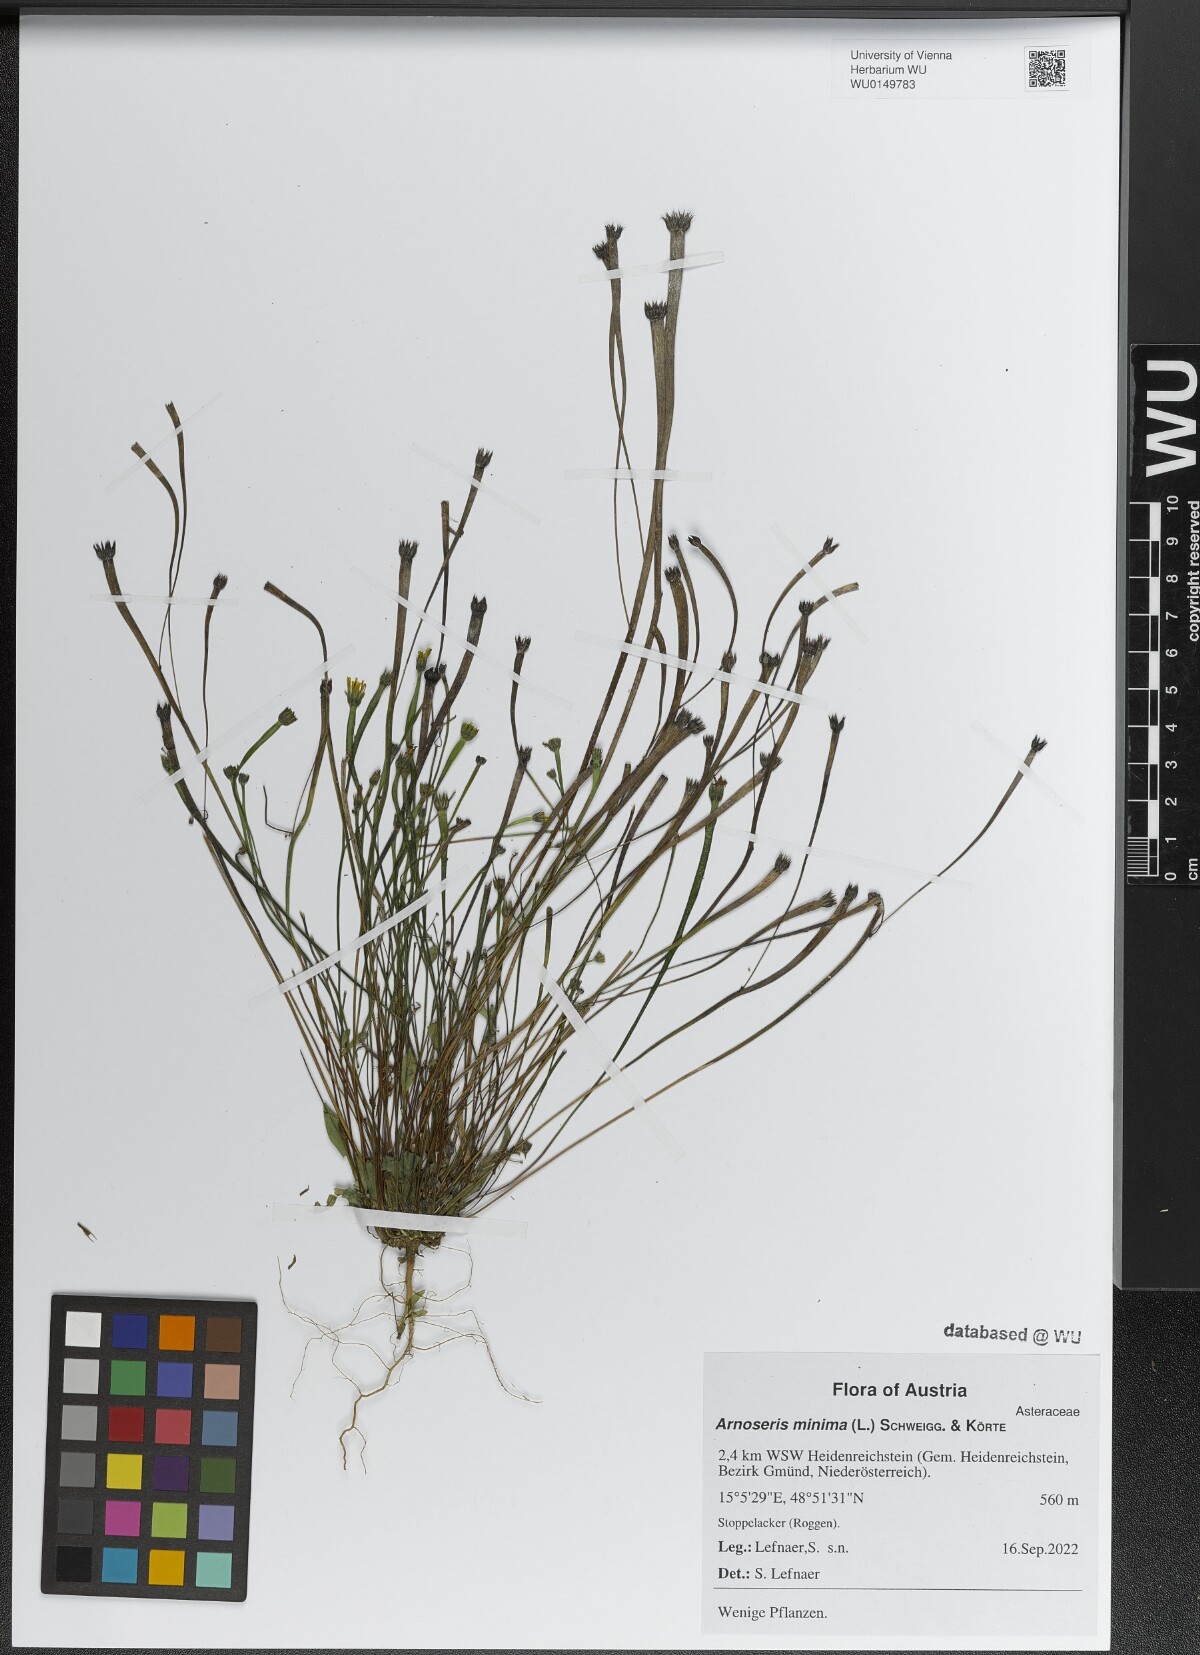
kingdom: Plantae
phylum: Tracheophyta
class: Magnoliopsida
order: Asterales
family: Asteraceae
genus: Arnoseris
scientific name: Arnoseris minima
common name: Lamb's succory
